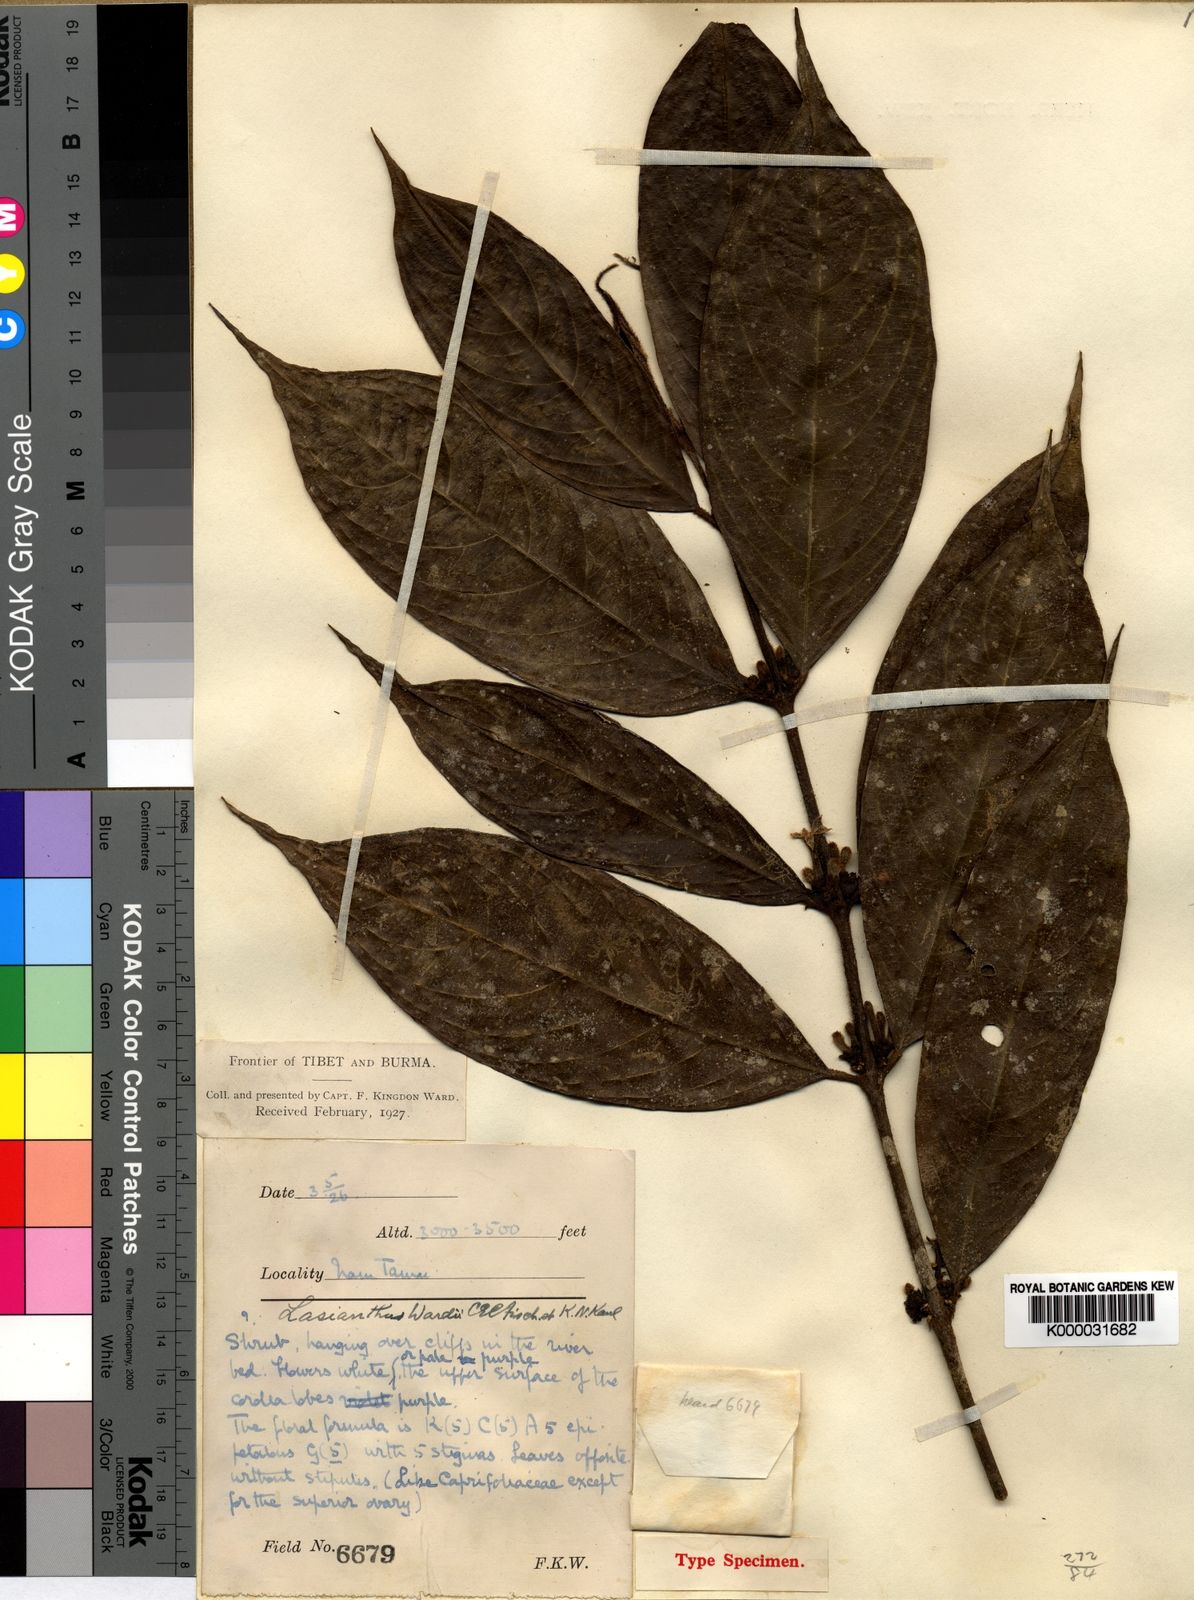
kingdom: Plantae
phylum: Tracheophyta
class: Magnoliopsida
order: Gentianales
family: Rubiaceae
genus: Lasianthus
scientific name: Lasianthus wardii
